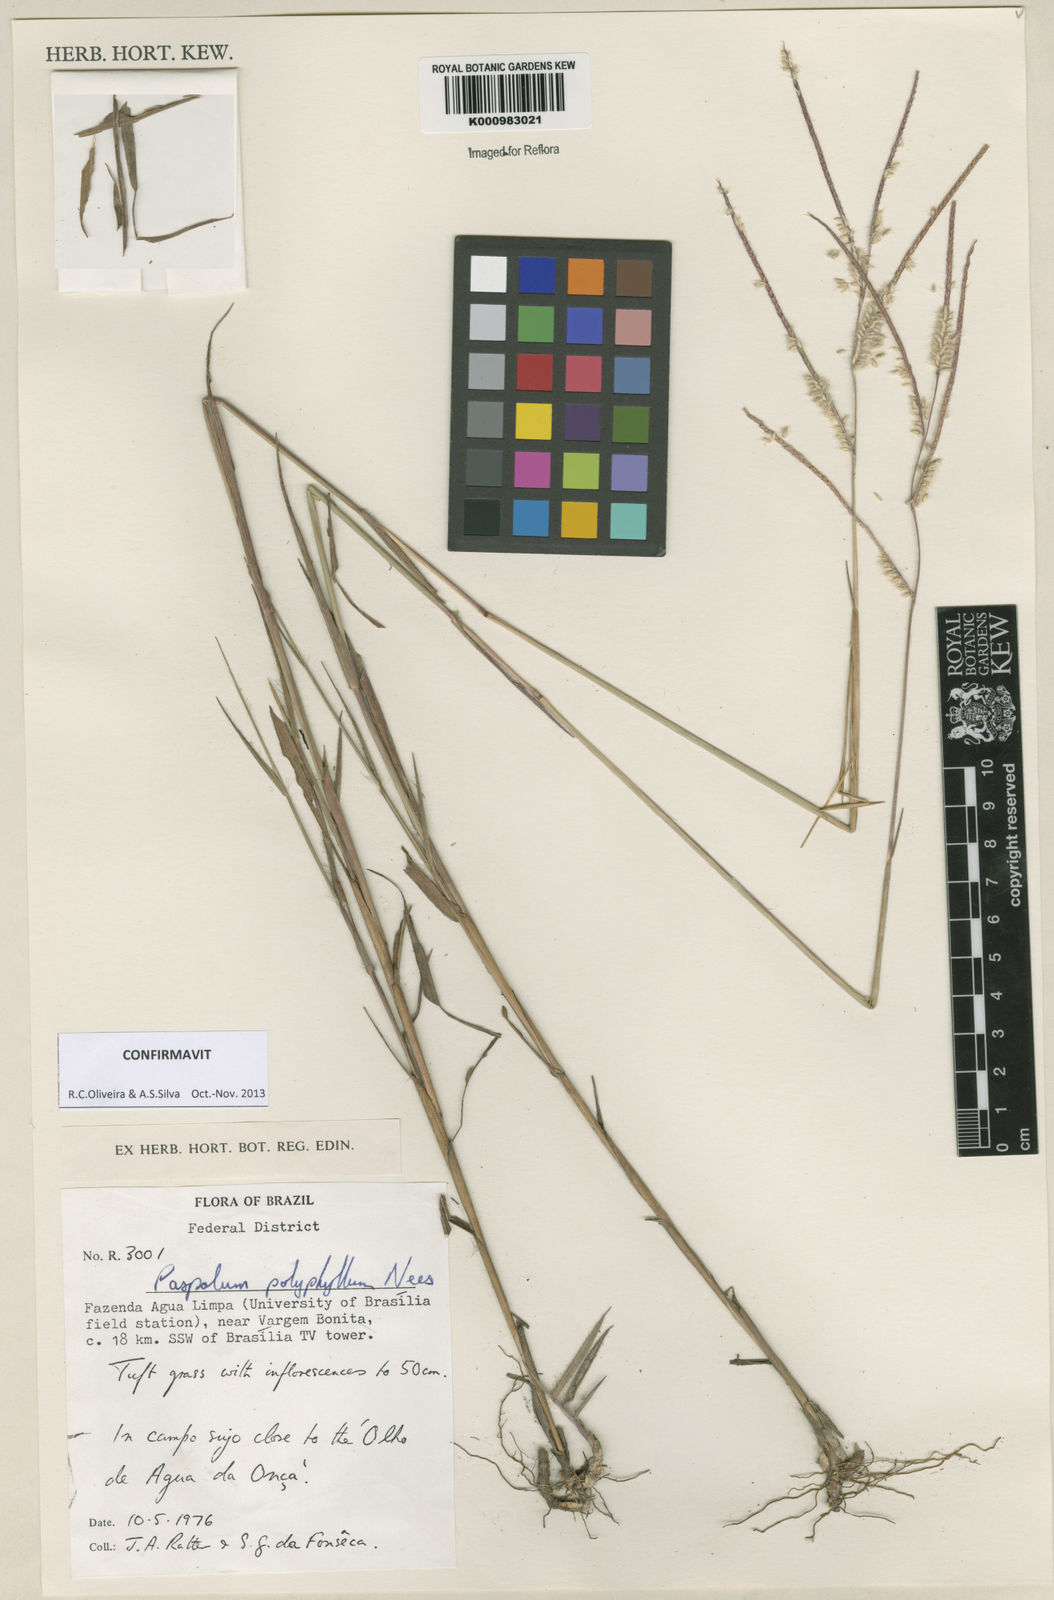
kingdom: Plantae
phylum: Tracheophyta
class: Liliopsida
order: Poales
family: Poaceae
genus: Paspalum
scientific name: Paspalum
